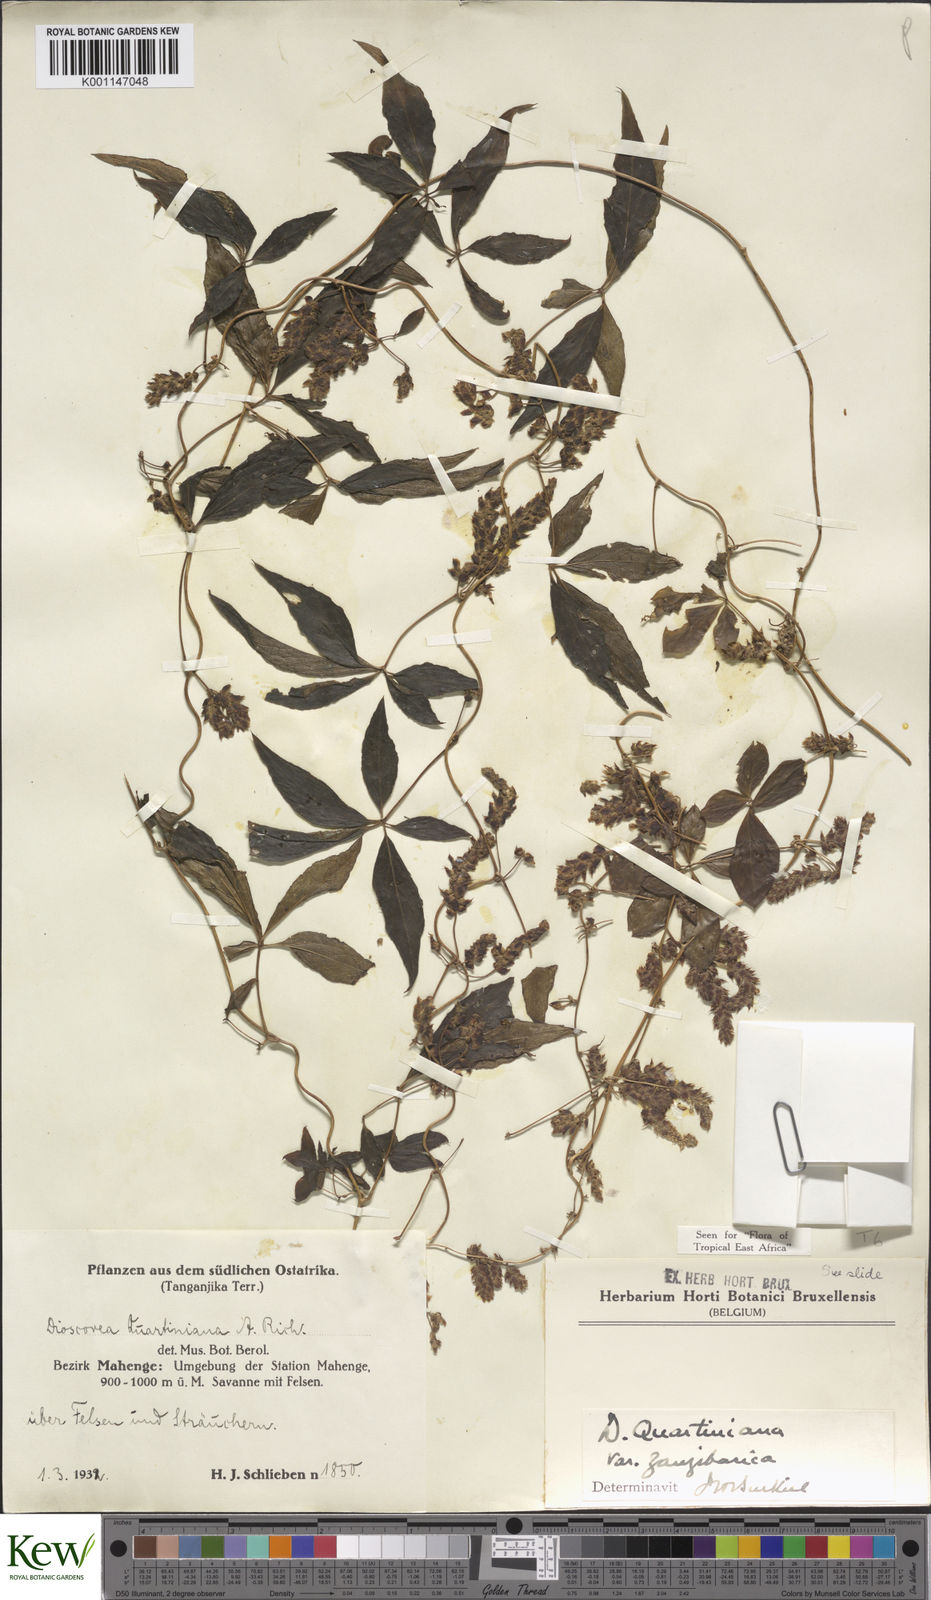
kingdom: Plantae
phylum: Tracheophyta
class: Liliopsida
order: Dioscoreales
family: Dioscoreaceae
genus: Dioscorea
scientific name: Dioscorea quartiniana
